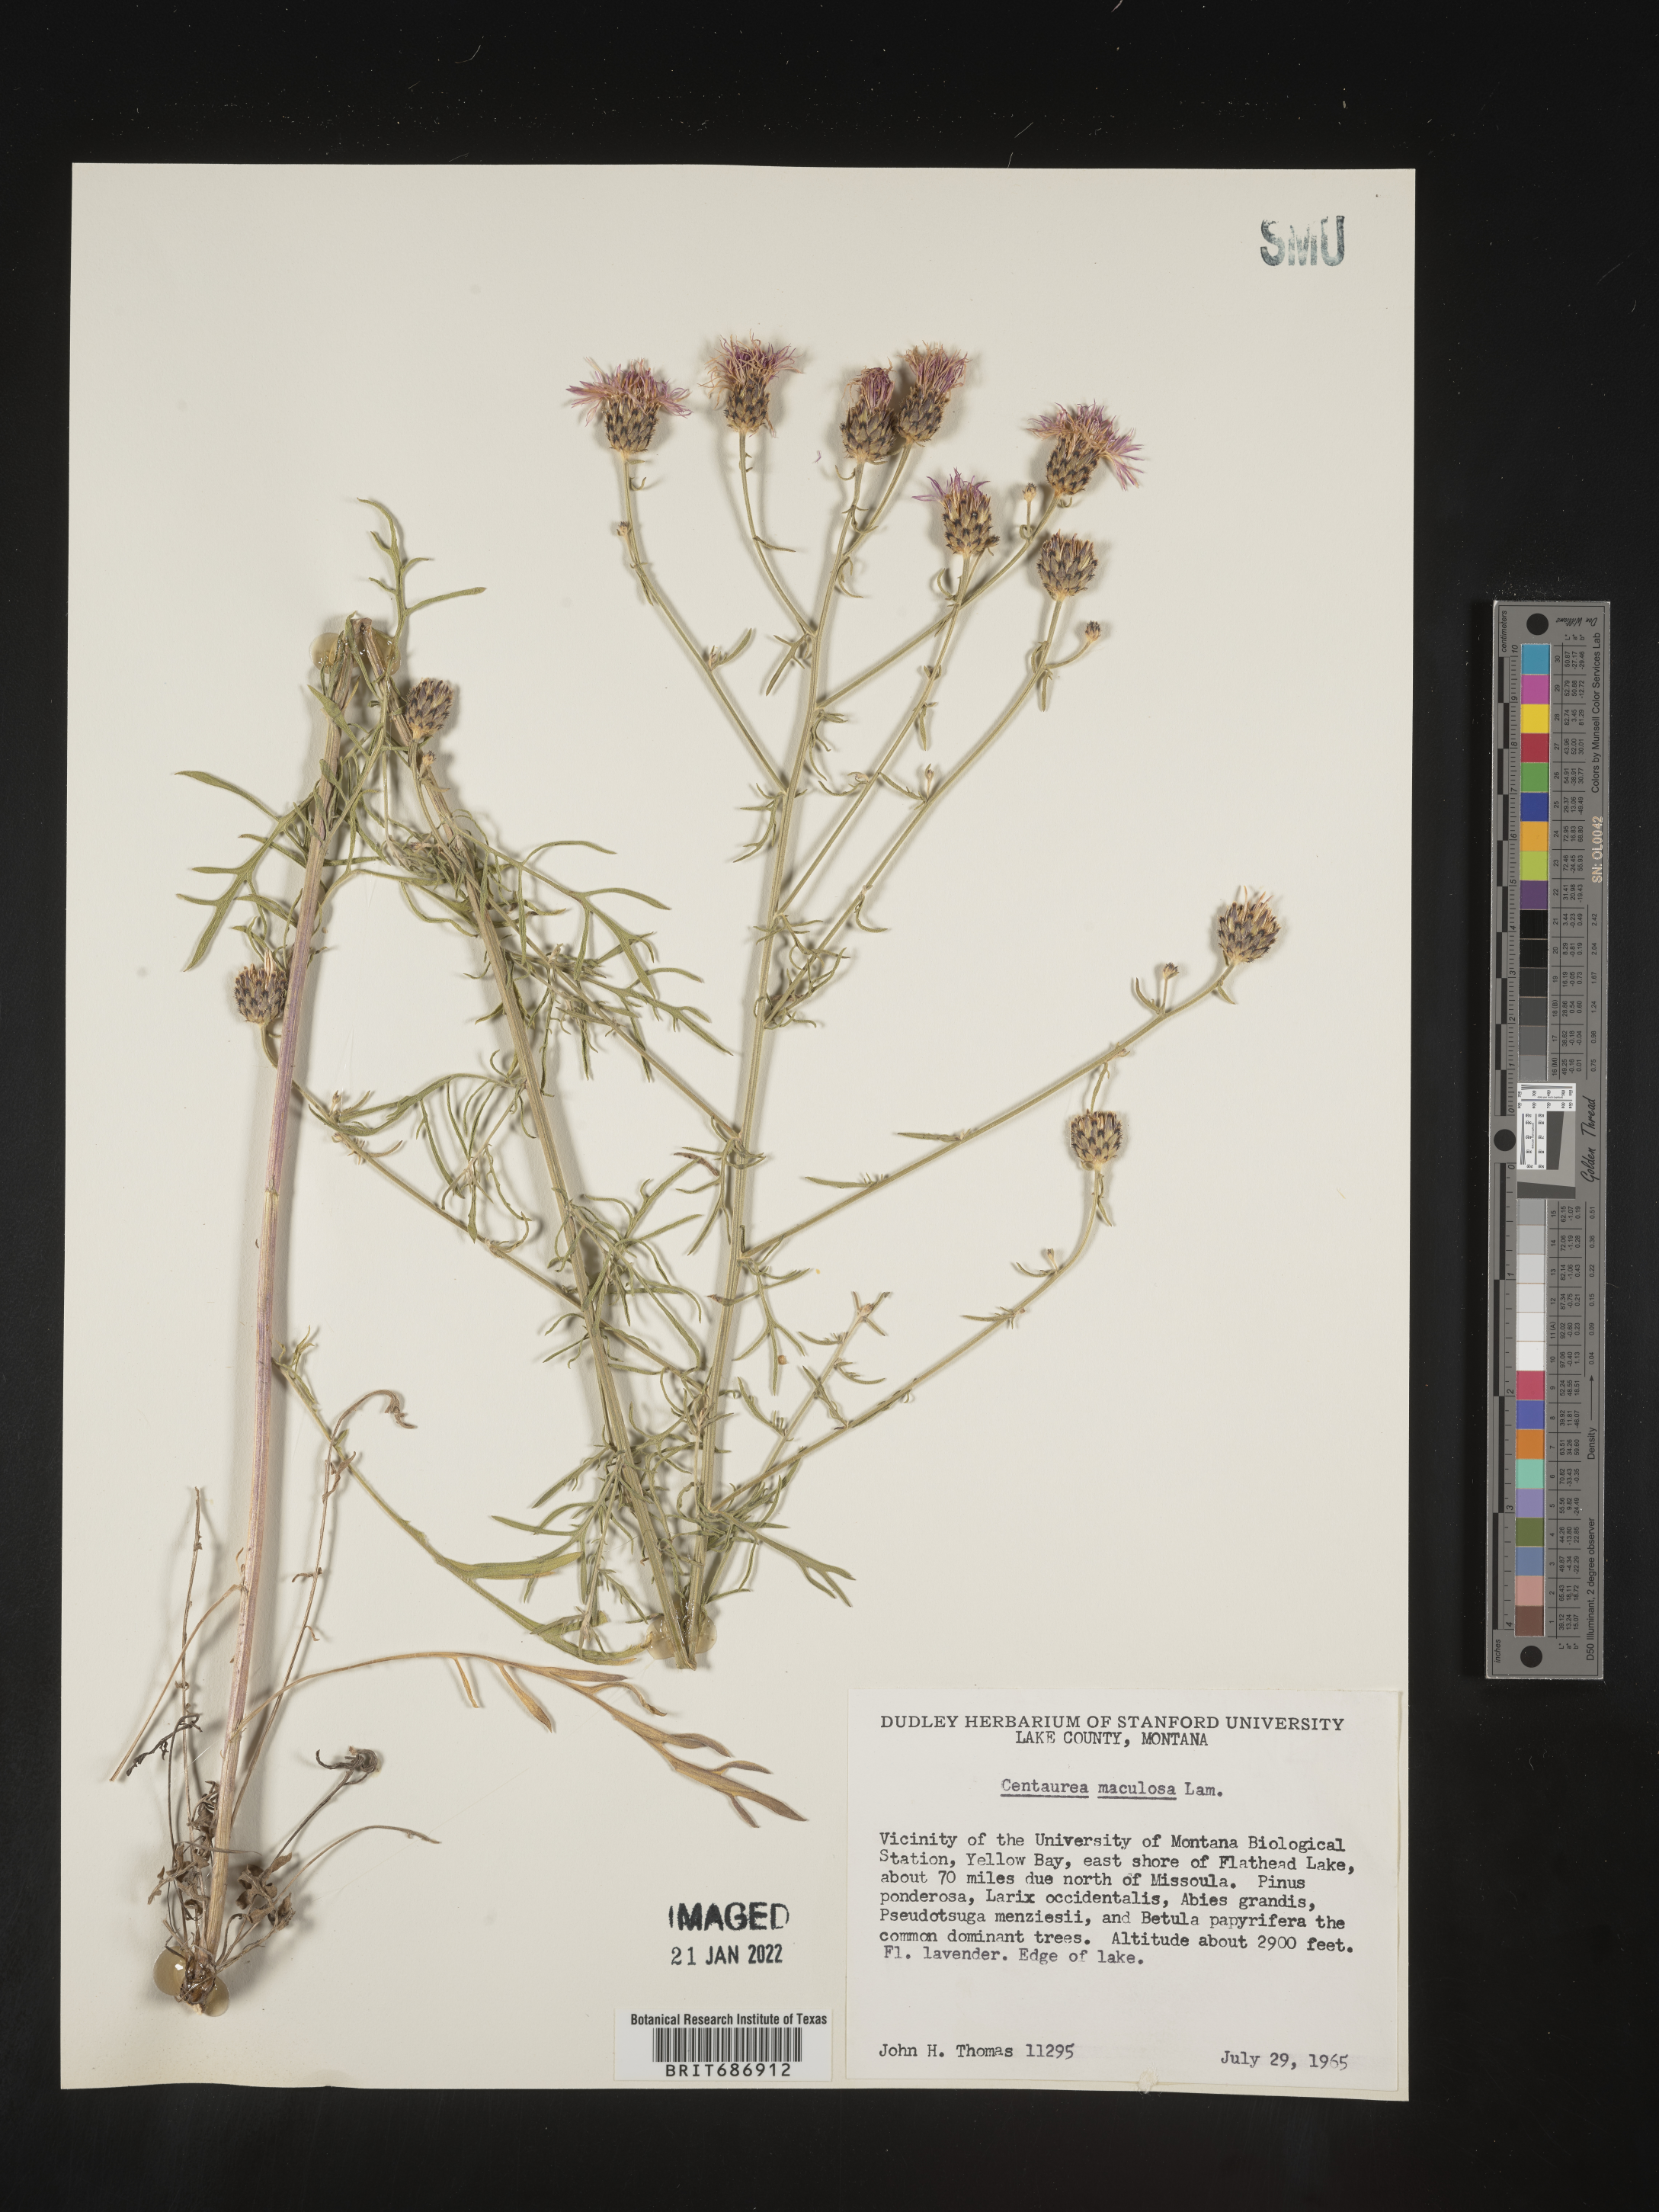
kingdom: Plantae
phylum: Tracheophyta
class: Magnoliopsida
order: Asterales
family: Asteraceae
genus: Centaurea
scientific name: Centaurea
